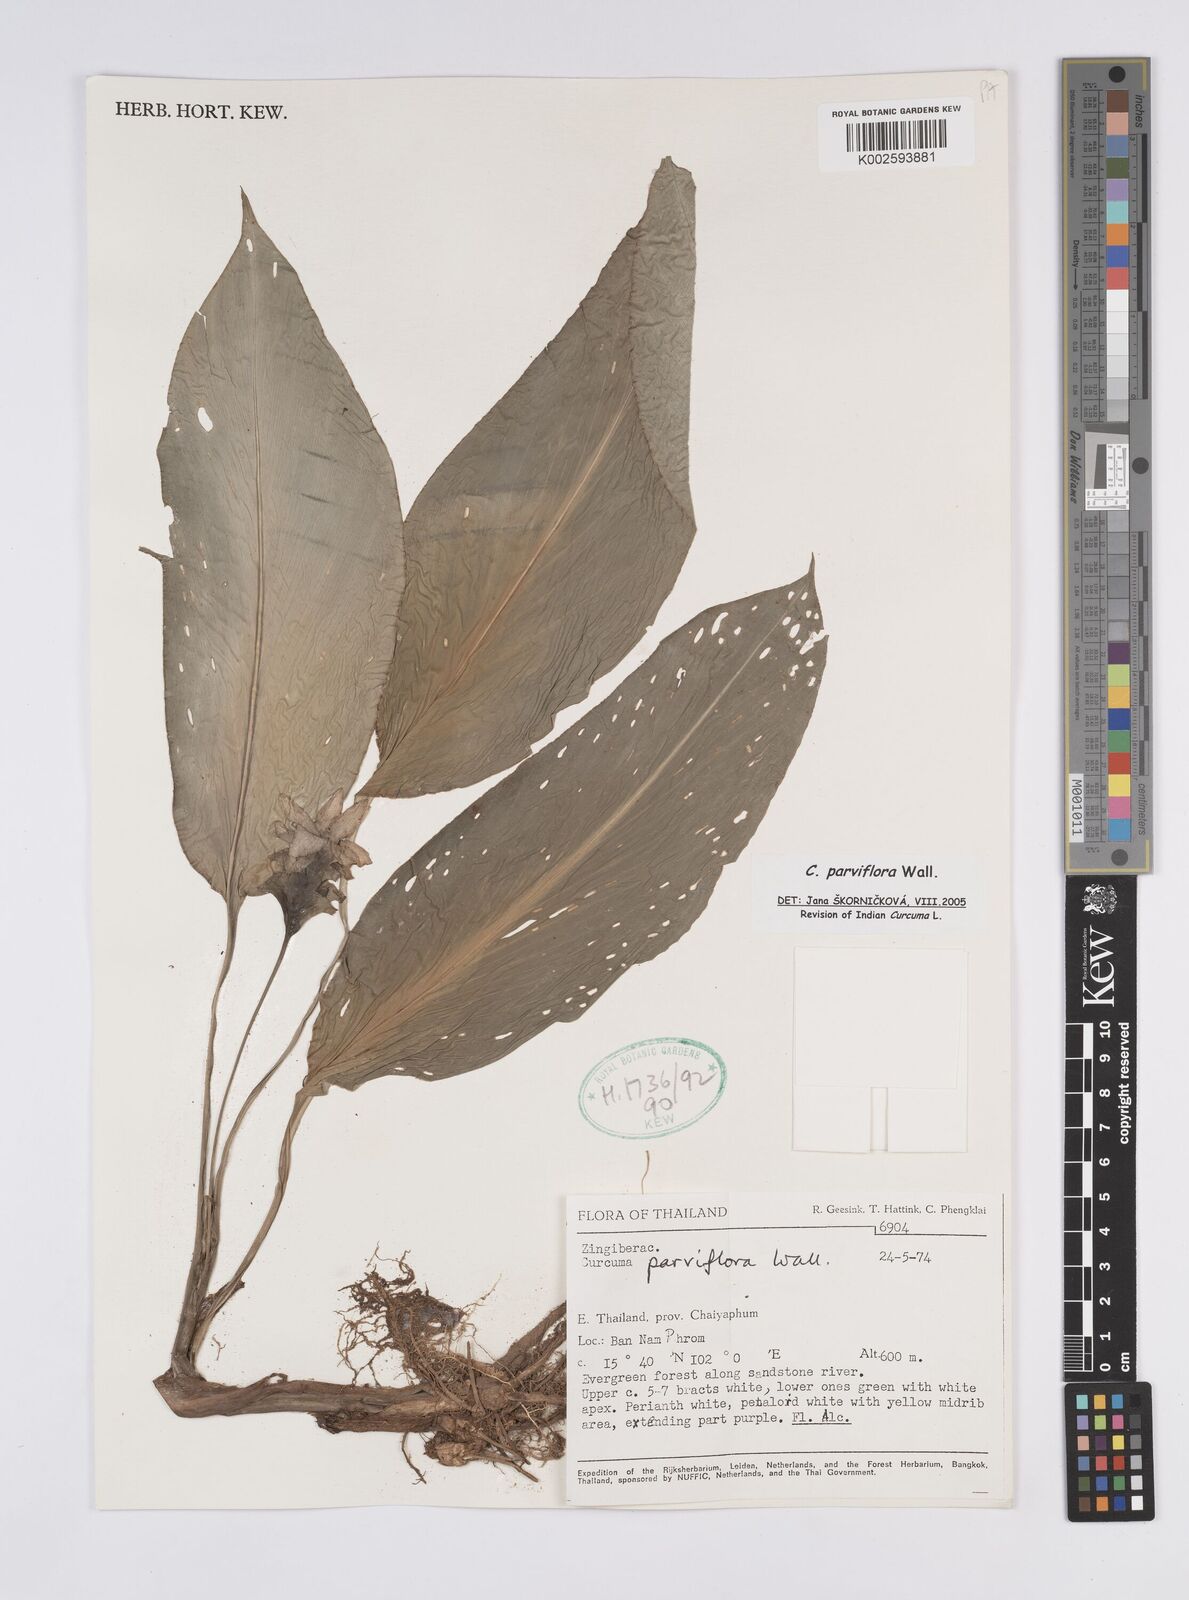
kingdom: Plantae
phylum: Tracheophyta
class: Liliopsida
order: Zingiberales
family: Zingiberaceae
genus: Curcuma
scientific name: Curcuma parviflora
